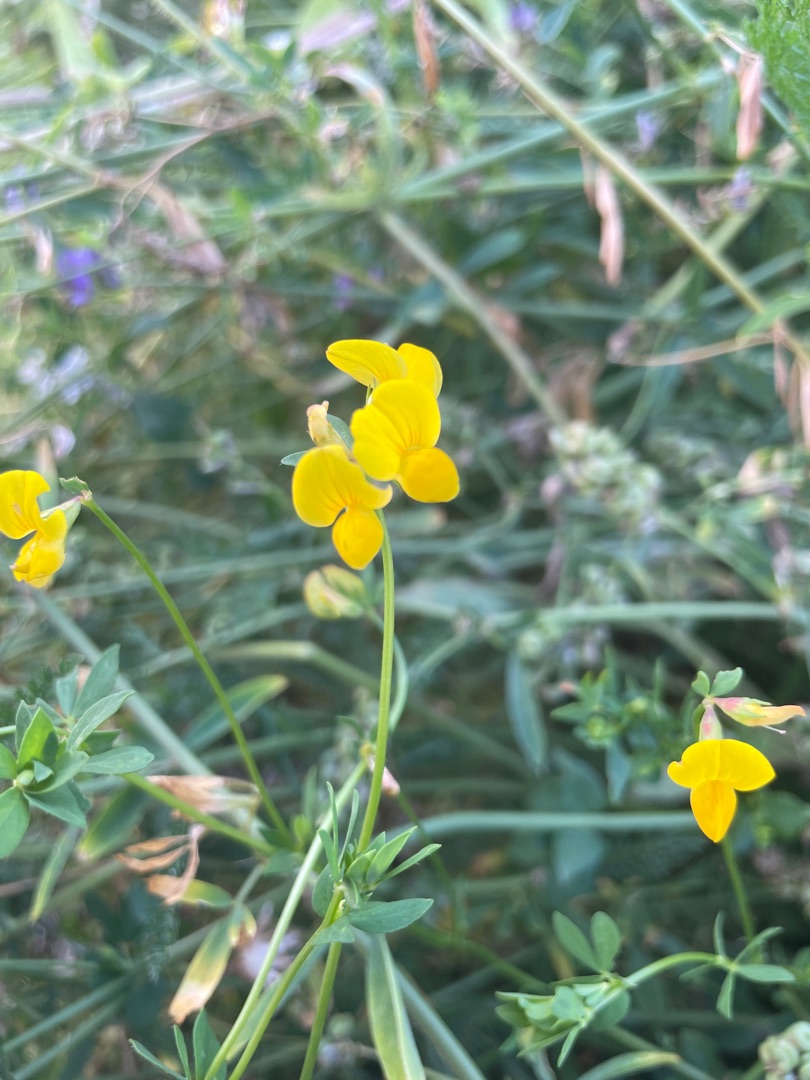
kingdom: Plantae
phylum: Tracheophyta
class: Magnoliopsida
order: Fabales
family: Fabaceae
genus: Lotus
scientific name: Lotus corniculatus
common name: Almindelig kællingetand
